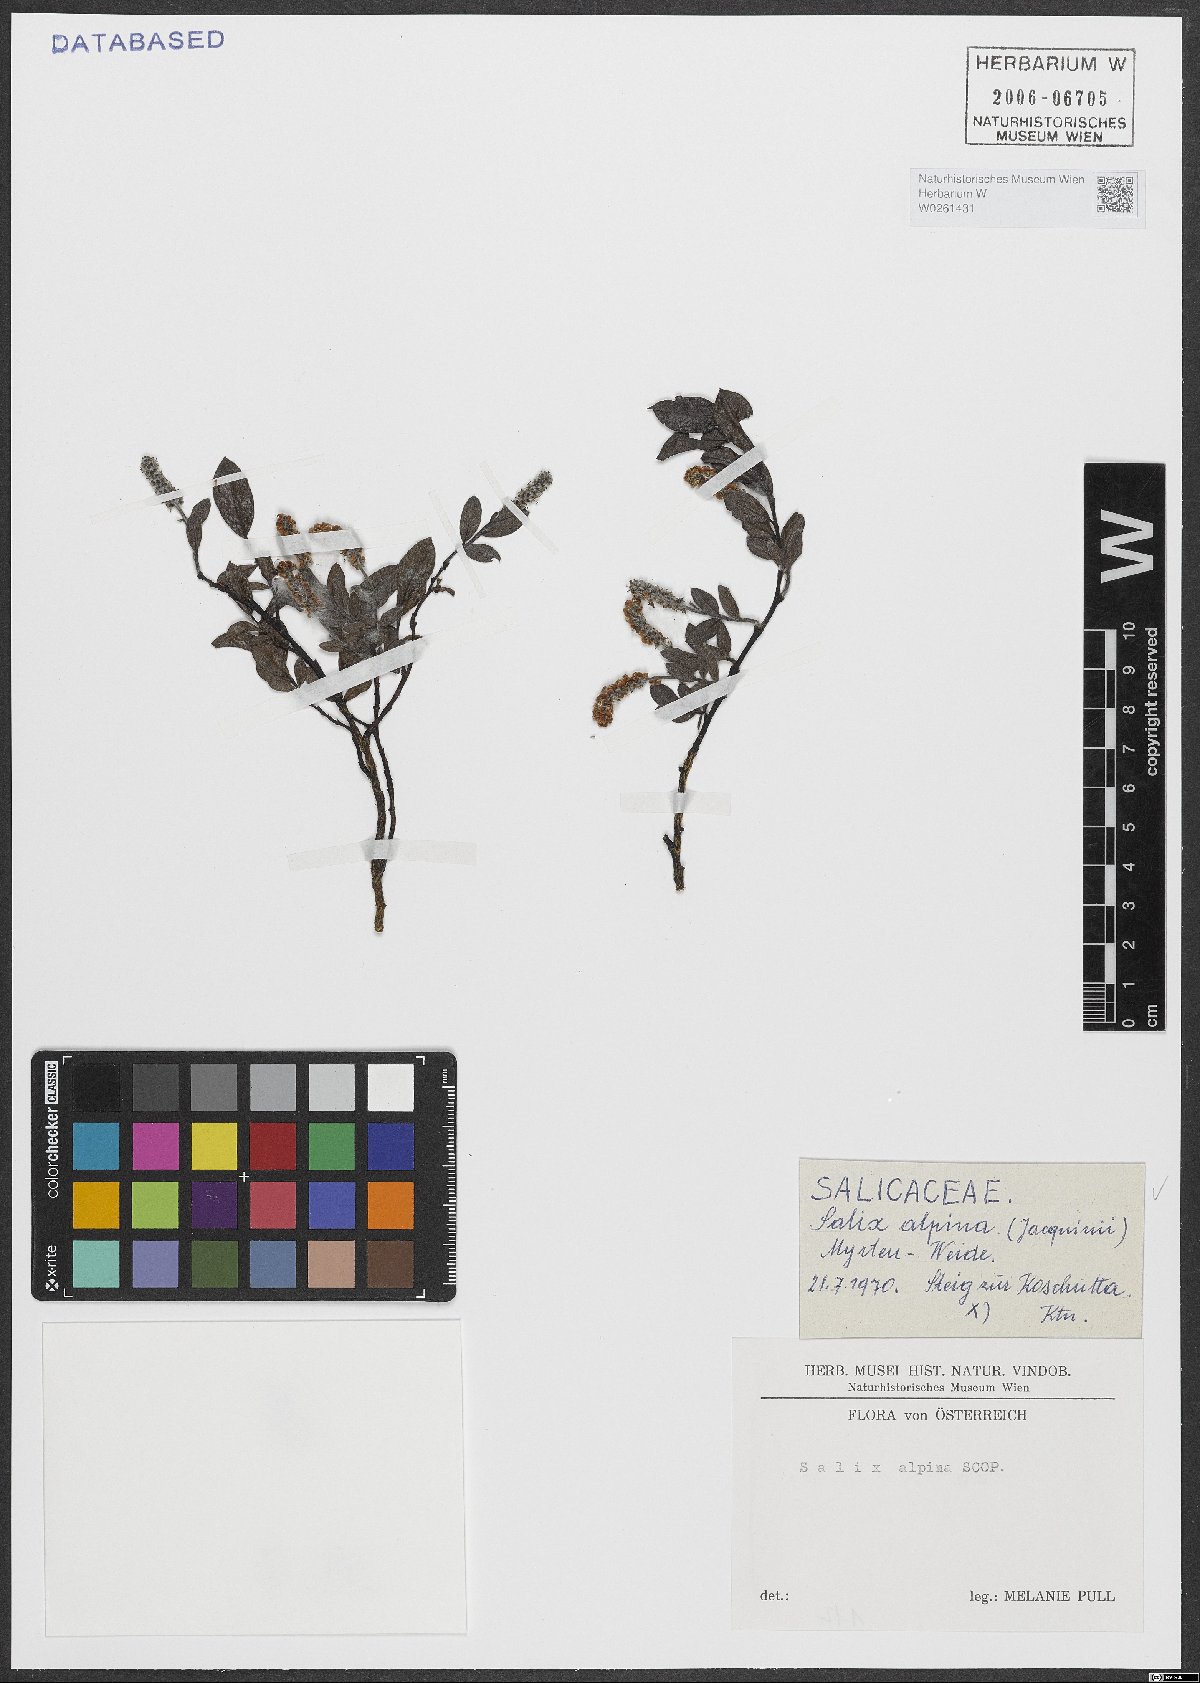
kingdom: Plantae
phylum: Tracheophyta
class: Magnoliopsida
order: Malpighiales
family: Salicaceae
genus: Salix
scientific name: Salix alpina
